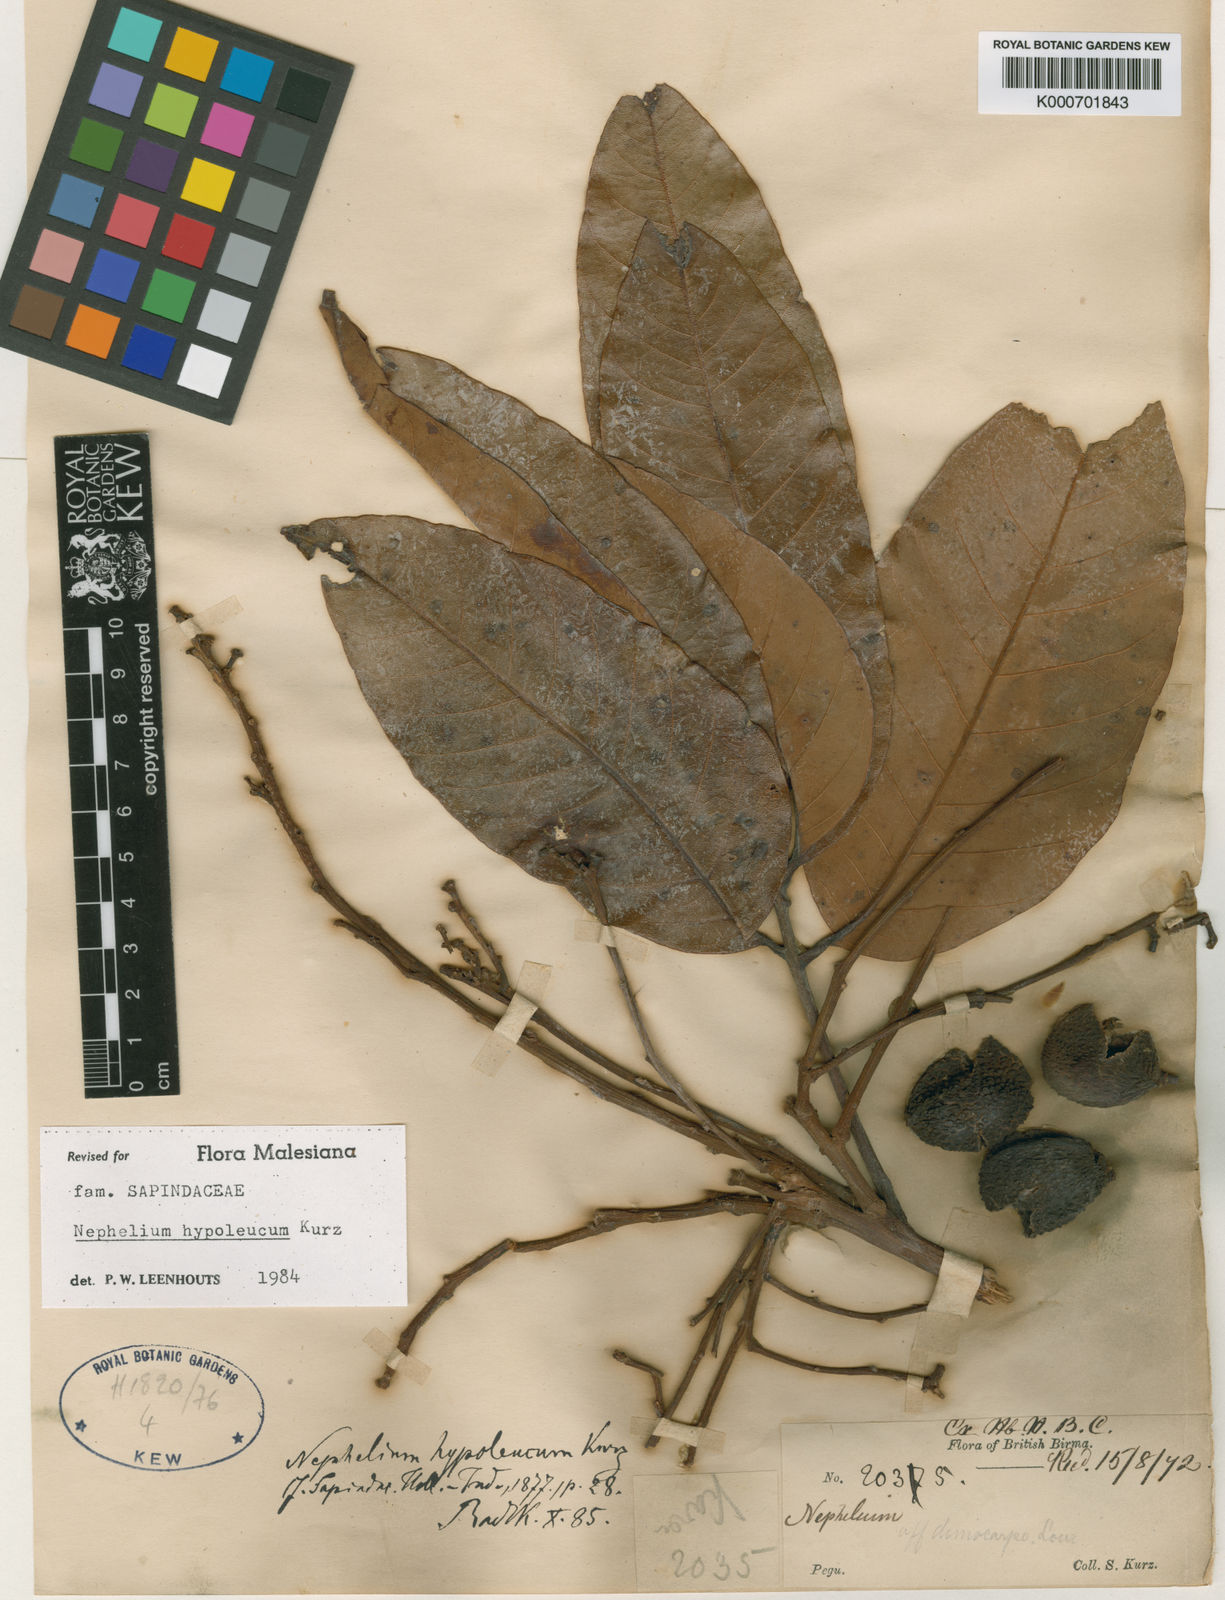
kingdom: Plantae
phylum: Tracheophyta
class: Magnoliopsida
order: Sapindales
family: Sapindaceae
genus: Nephelium
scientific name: Nephelium hypoleucum
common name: Korlan
